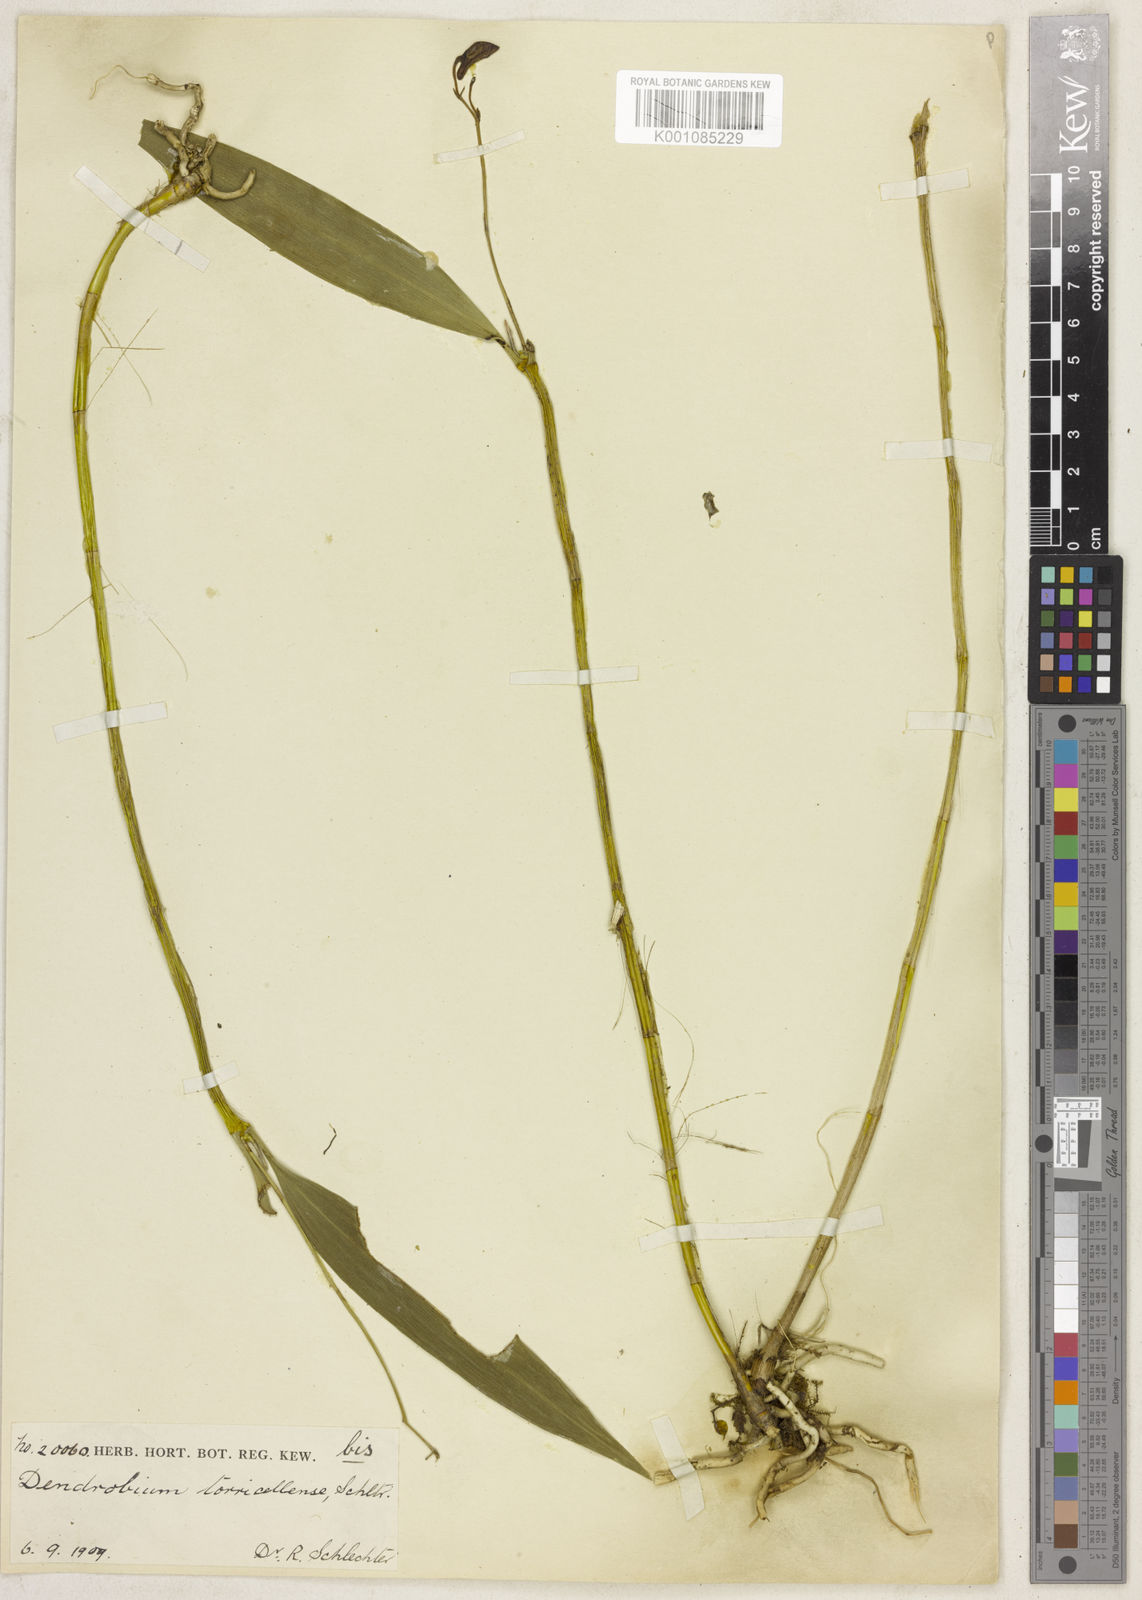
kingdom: Plantae
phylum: Tracheophyta
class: Liliopsida
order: Asparagales
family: Orchidaceae
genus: Dendrobium
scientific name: Dendrobium torricellense
